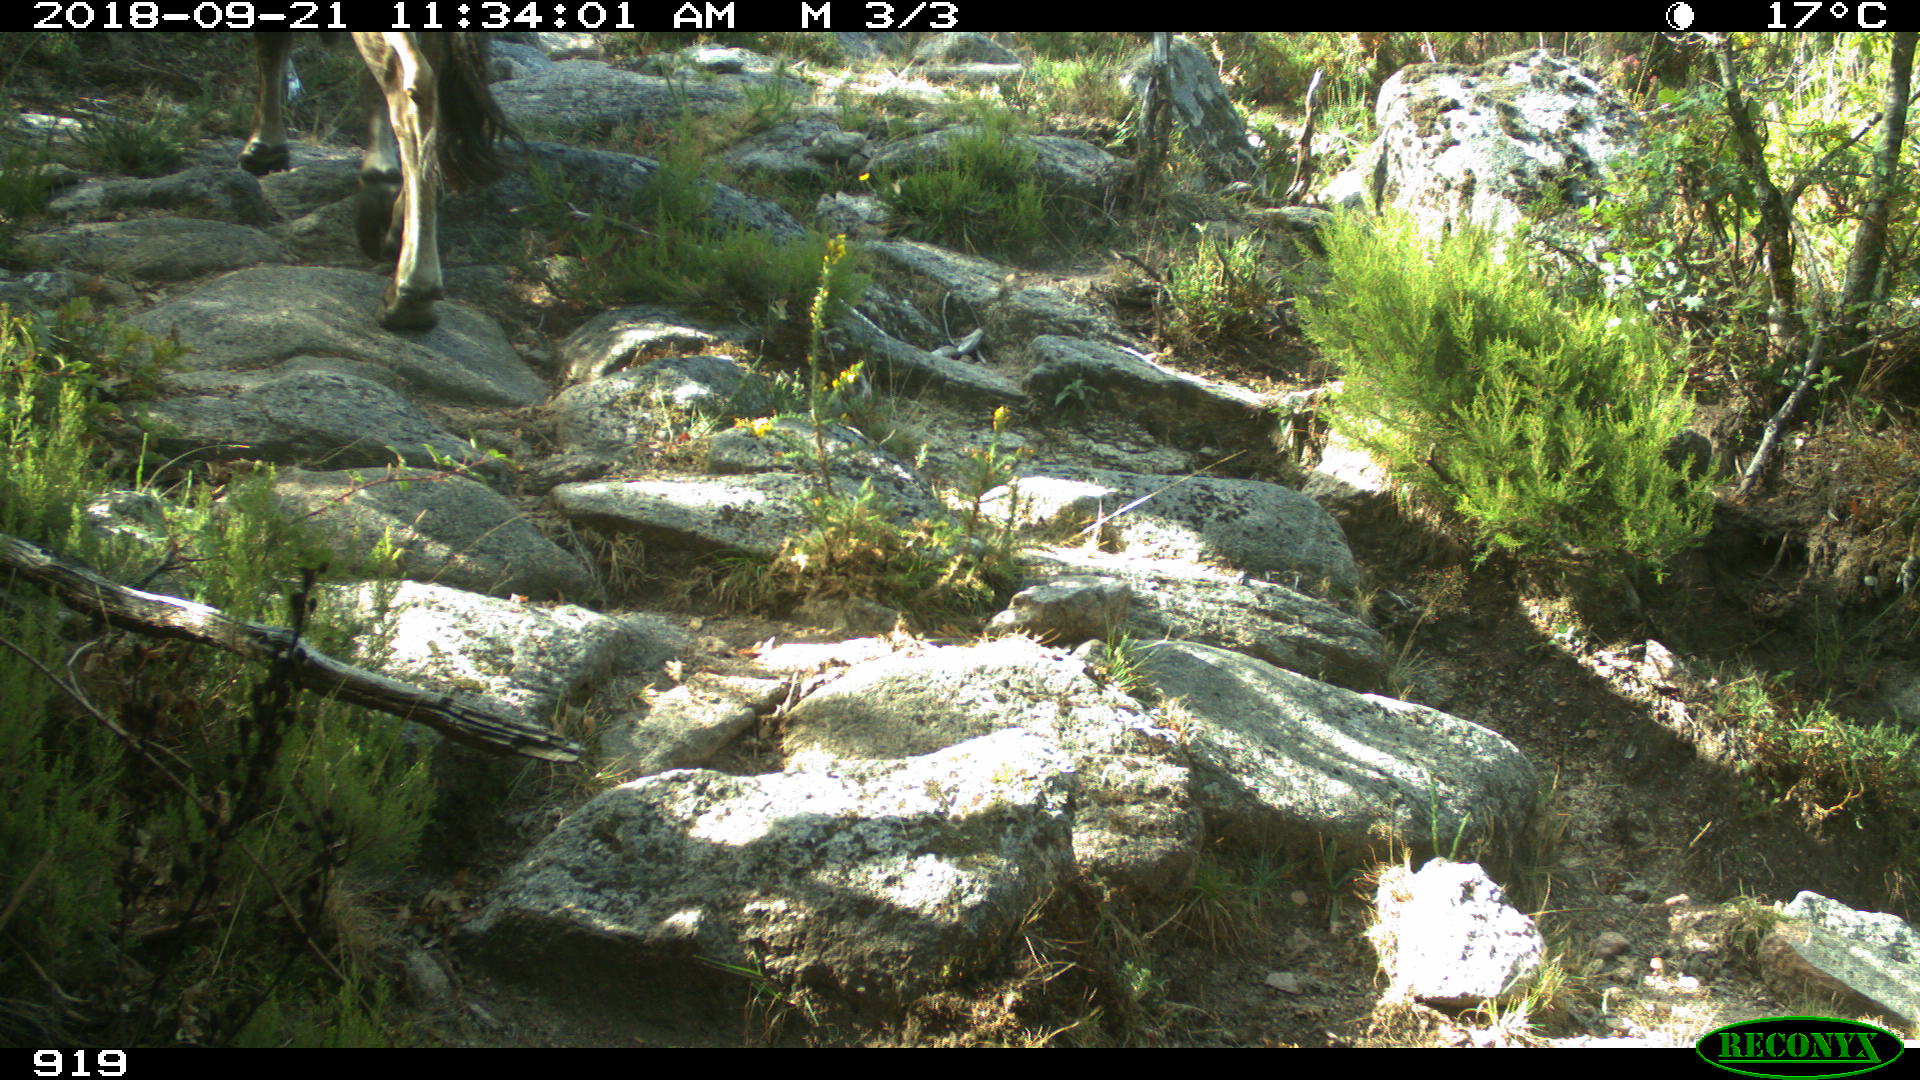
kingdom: Animalia
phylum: Chordata
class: Mammalia
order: Artiodactyla
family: Bovidae
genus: Bos
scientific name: Bos taurus
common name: Domesticated cattle
